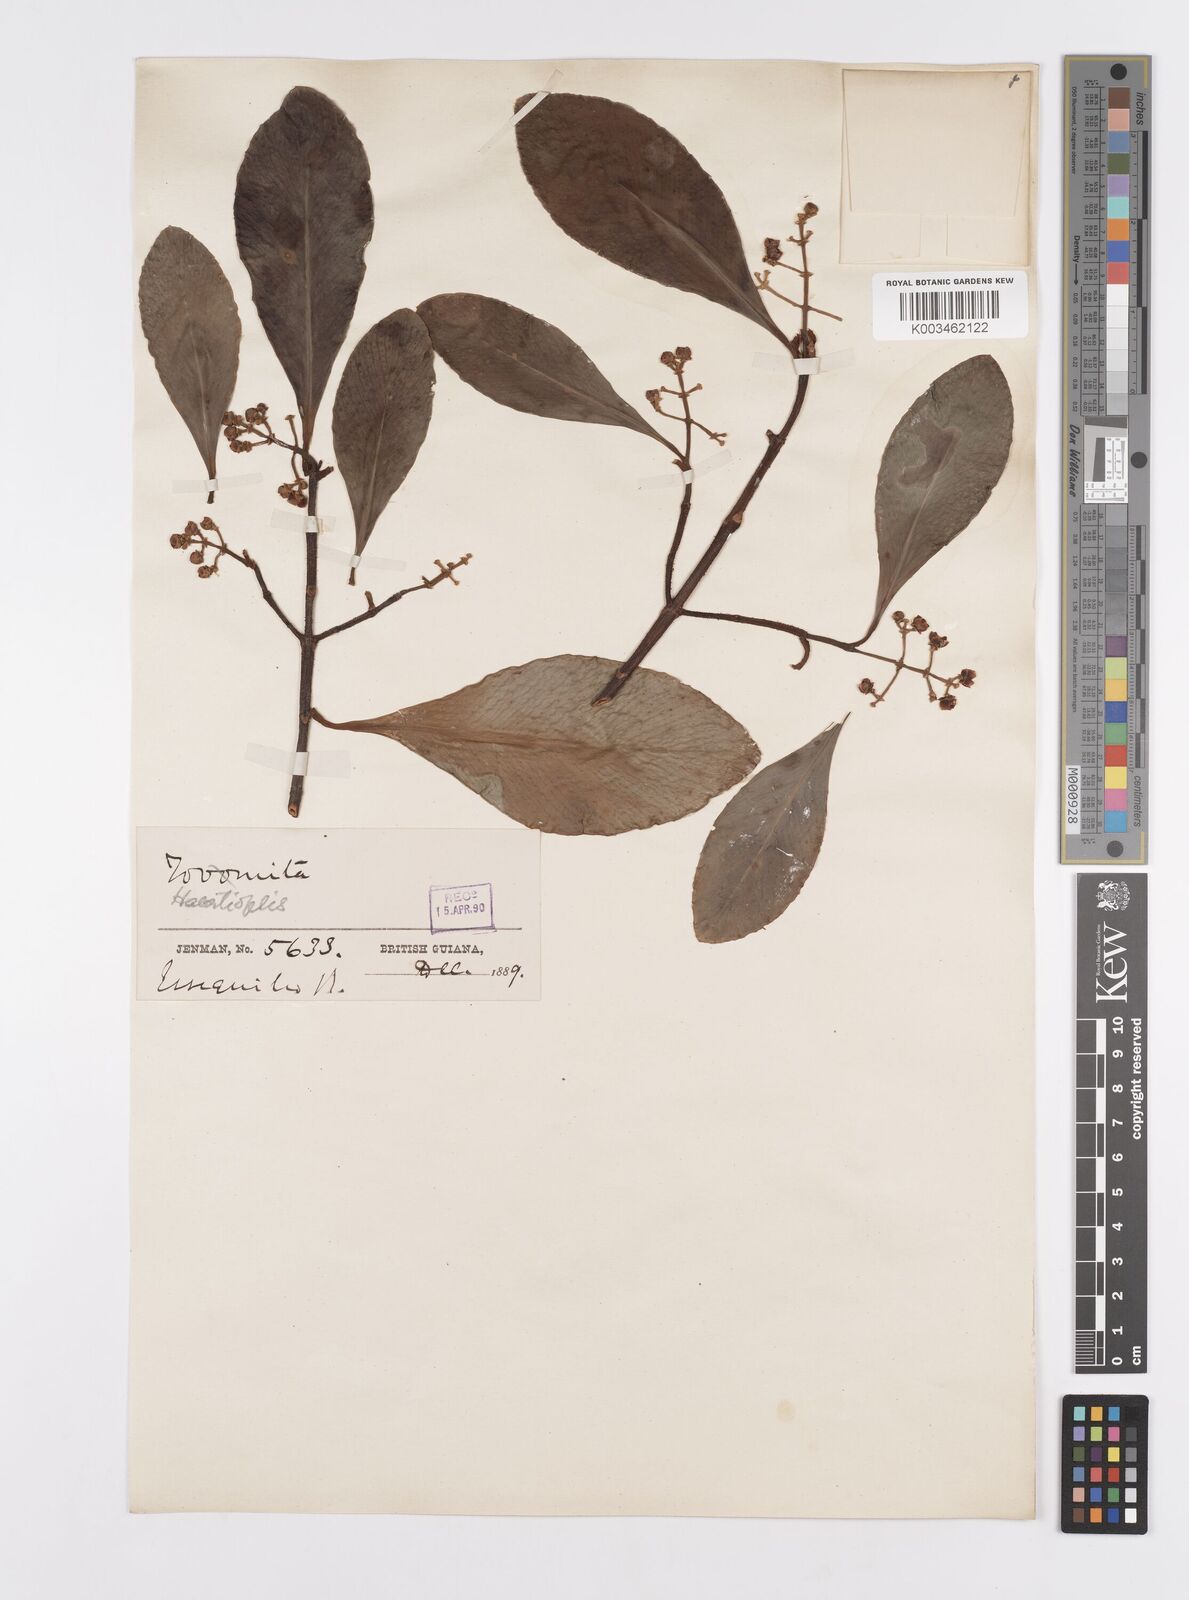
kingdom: Plantae
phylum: Tracheophyta
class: Magnoliopsida
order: Malpighiales
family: Clusiaceae
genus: Clusia
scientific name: Clusia flavida
